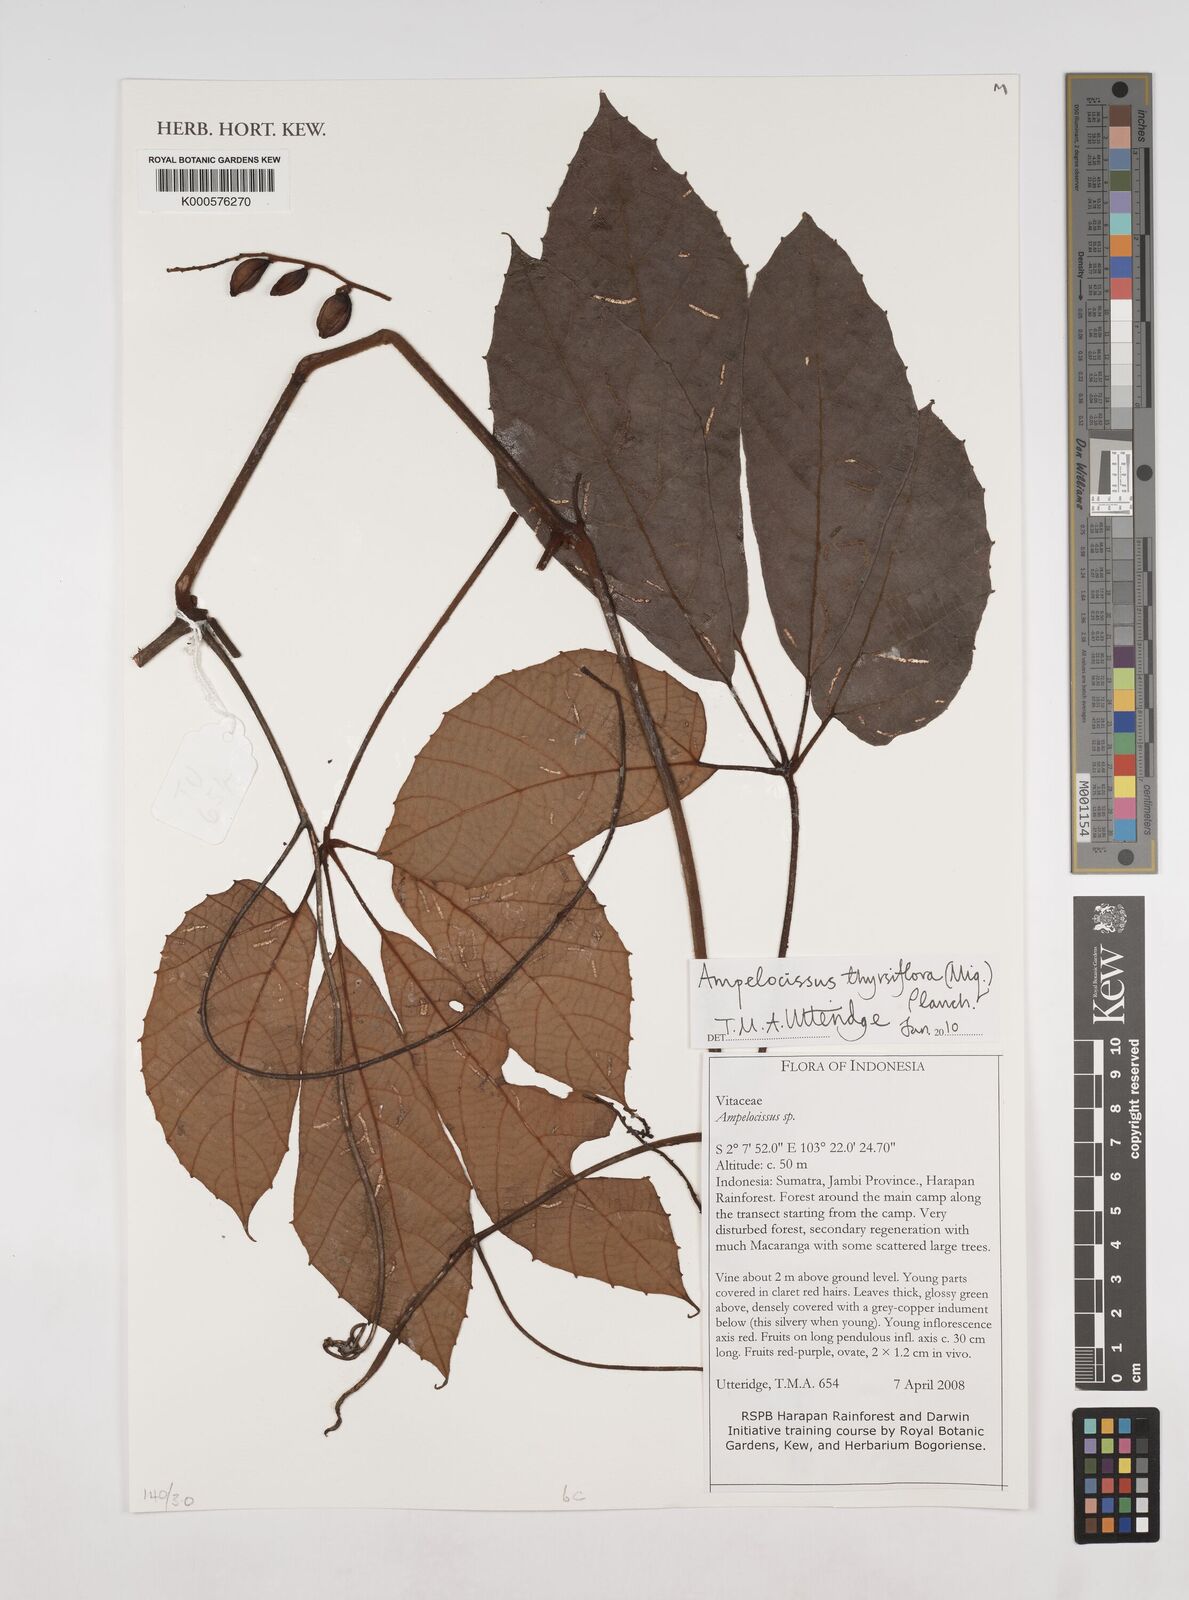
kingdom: Plantae
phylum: Tracheophyta
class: Magnoliopsida
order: Vitales
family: Vitaceae
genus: Ampelocissus
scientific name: Ampelocissus thyrsiflora
